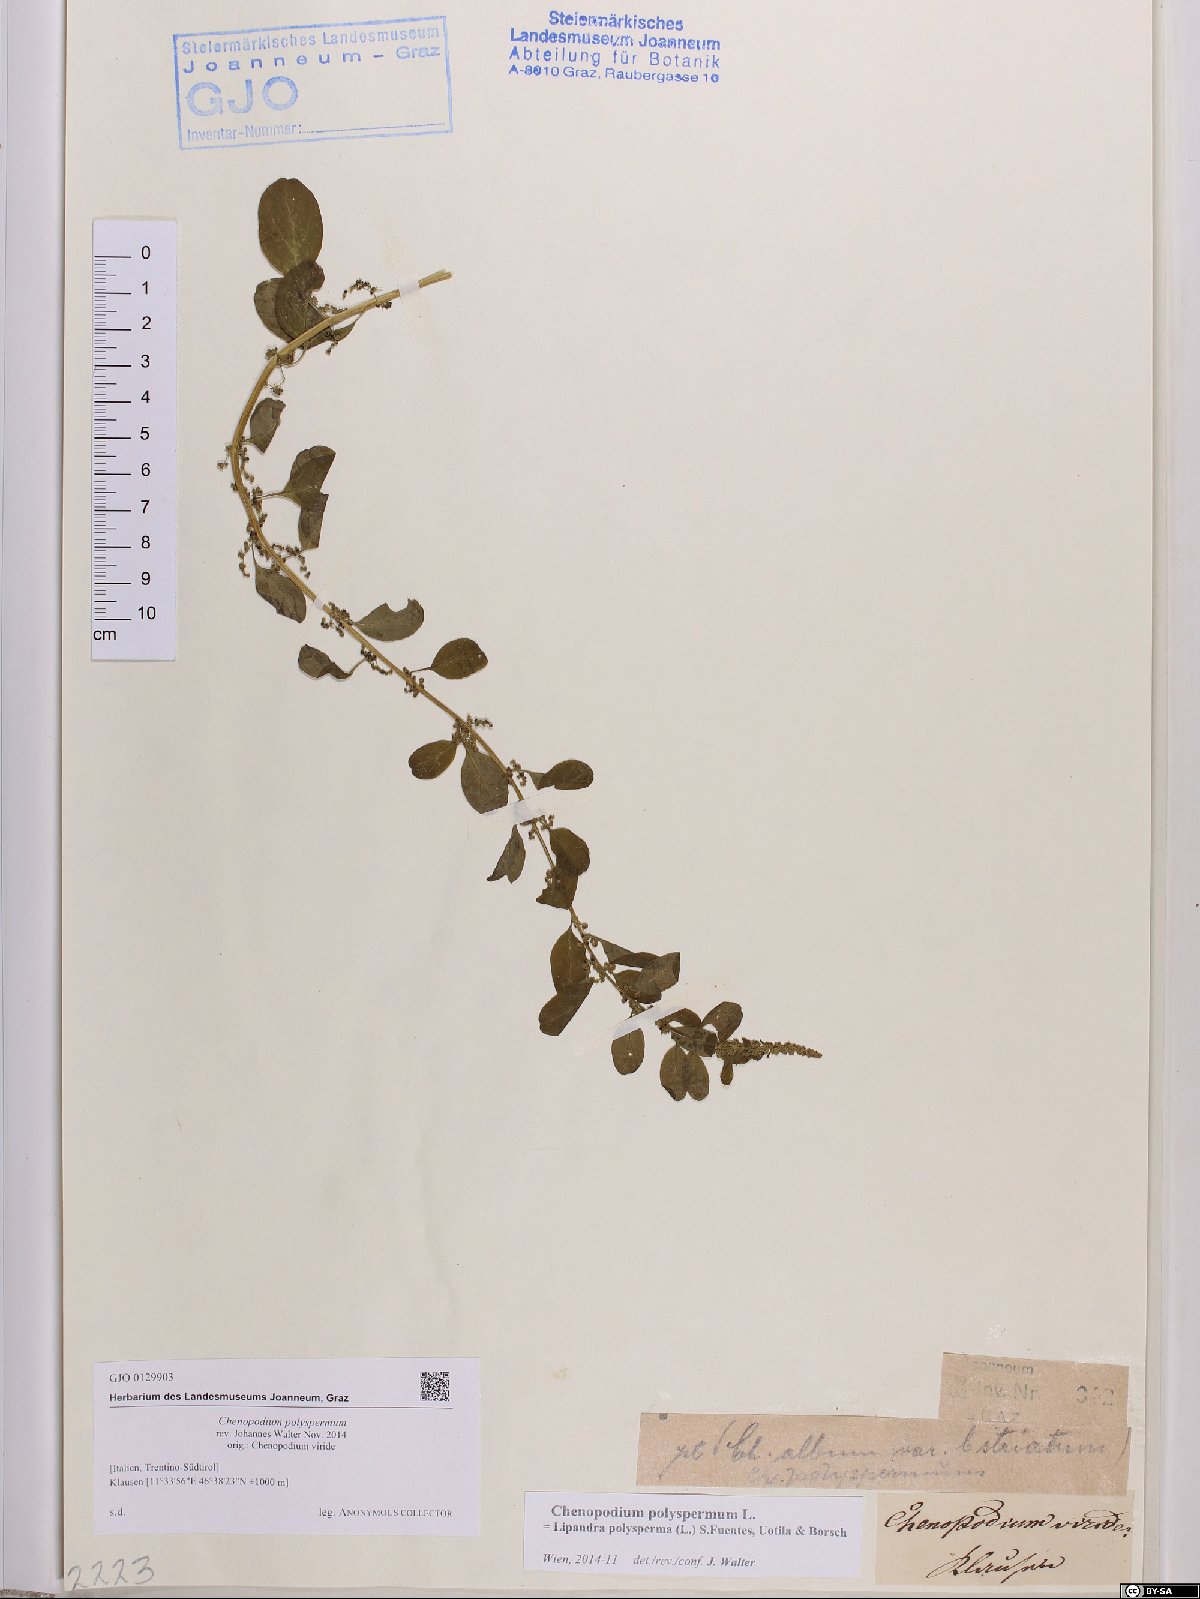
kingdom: Plantae
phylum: Tracheophyta
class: Magnoliopsida
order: Caryophyllales
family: Amaranthaceae
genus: Lipandra
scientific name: Lipandra polysperma
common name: Many-seed goosefoot
